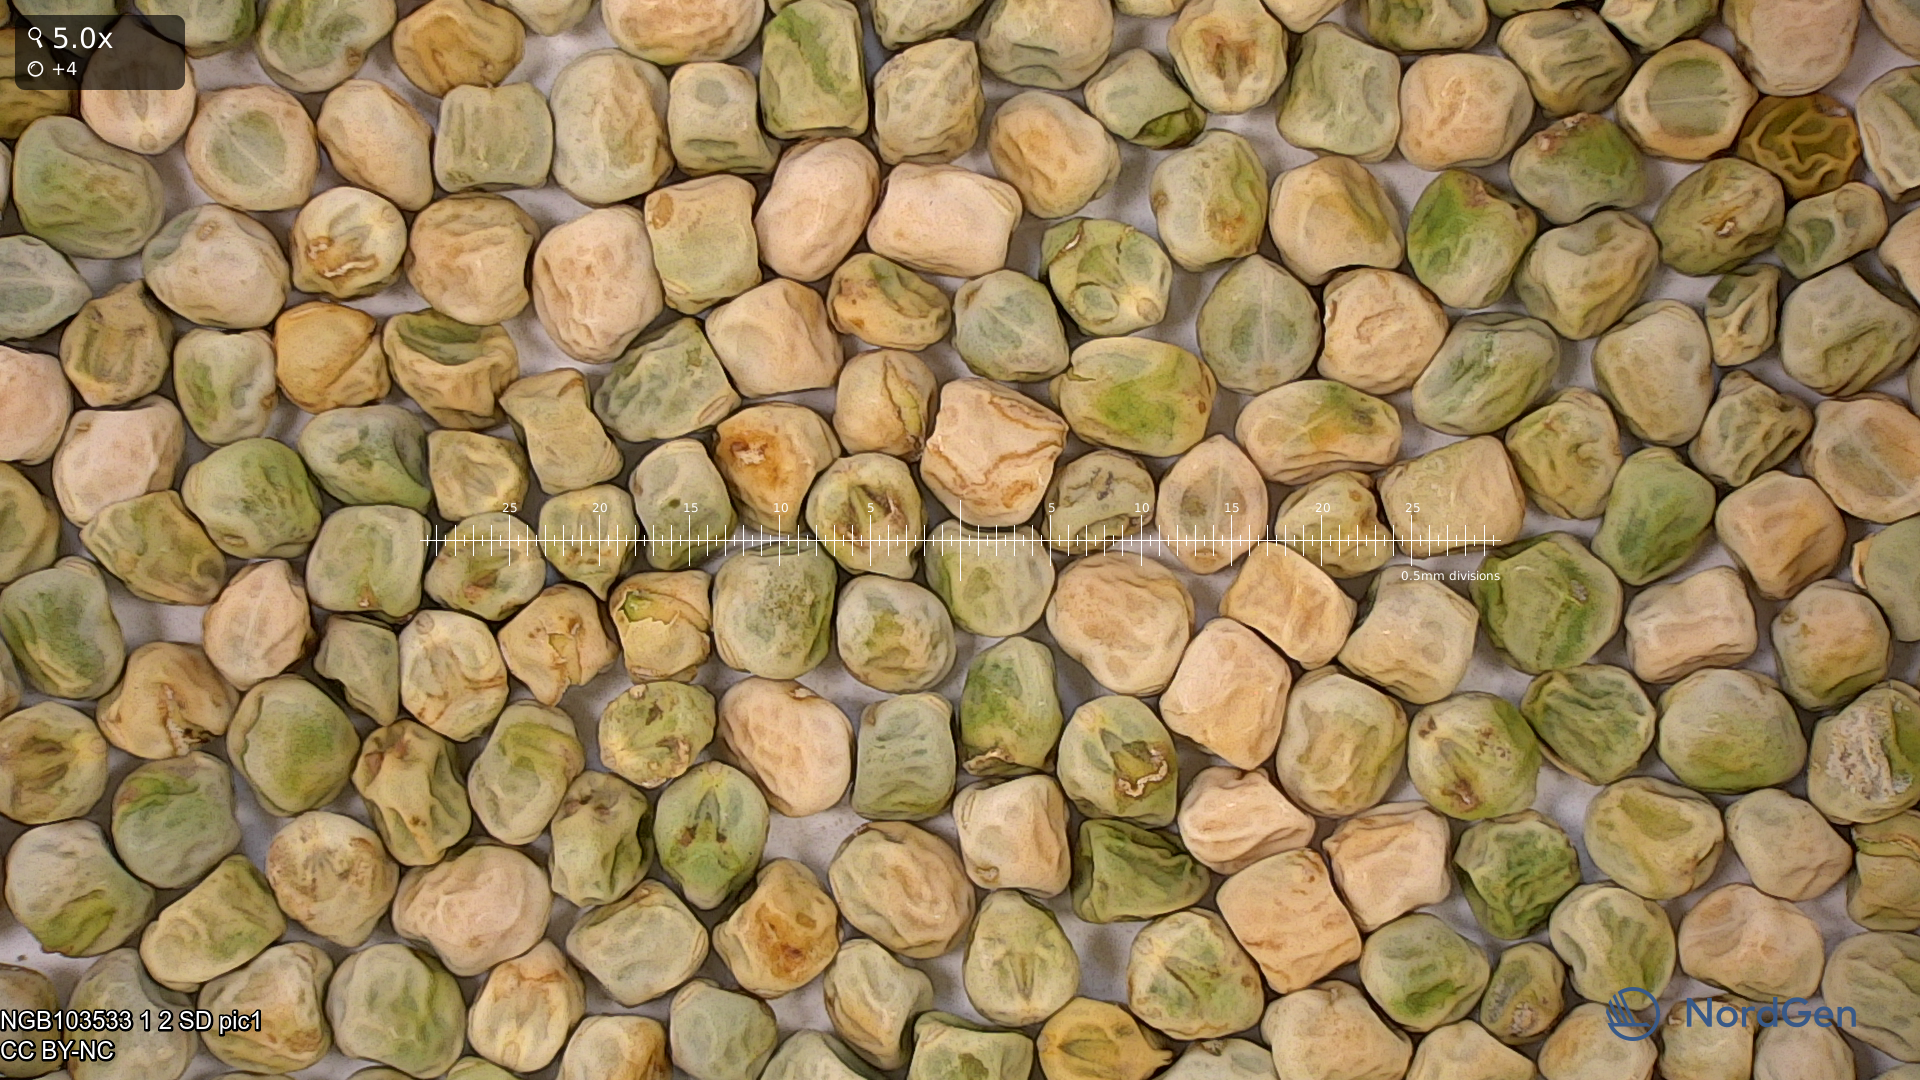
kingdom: Plantae
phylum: Tracheophyta
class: Magnoliopsida
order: Fabales
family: Fabaceae
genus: Lathyrus
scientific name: Lathyrus oleraceus
